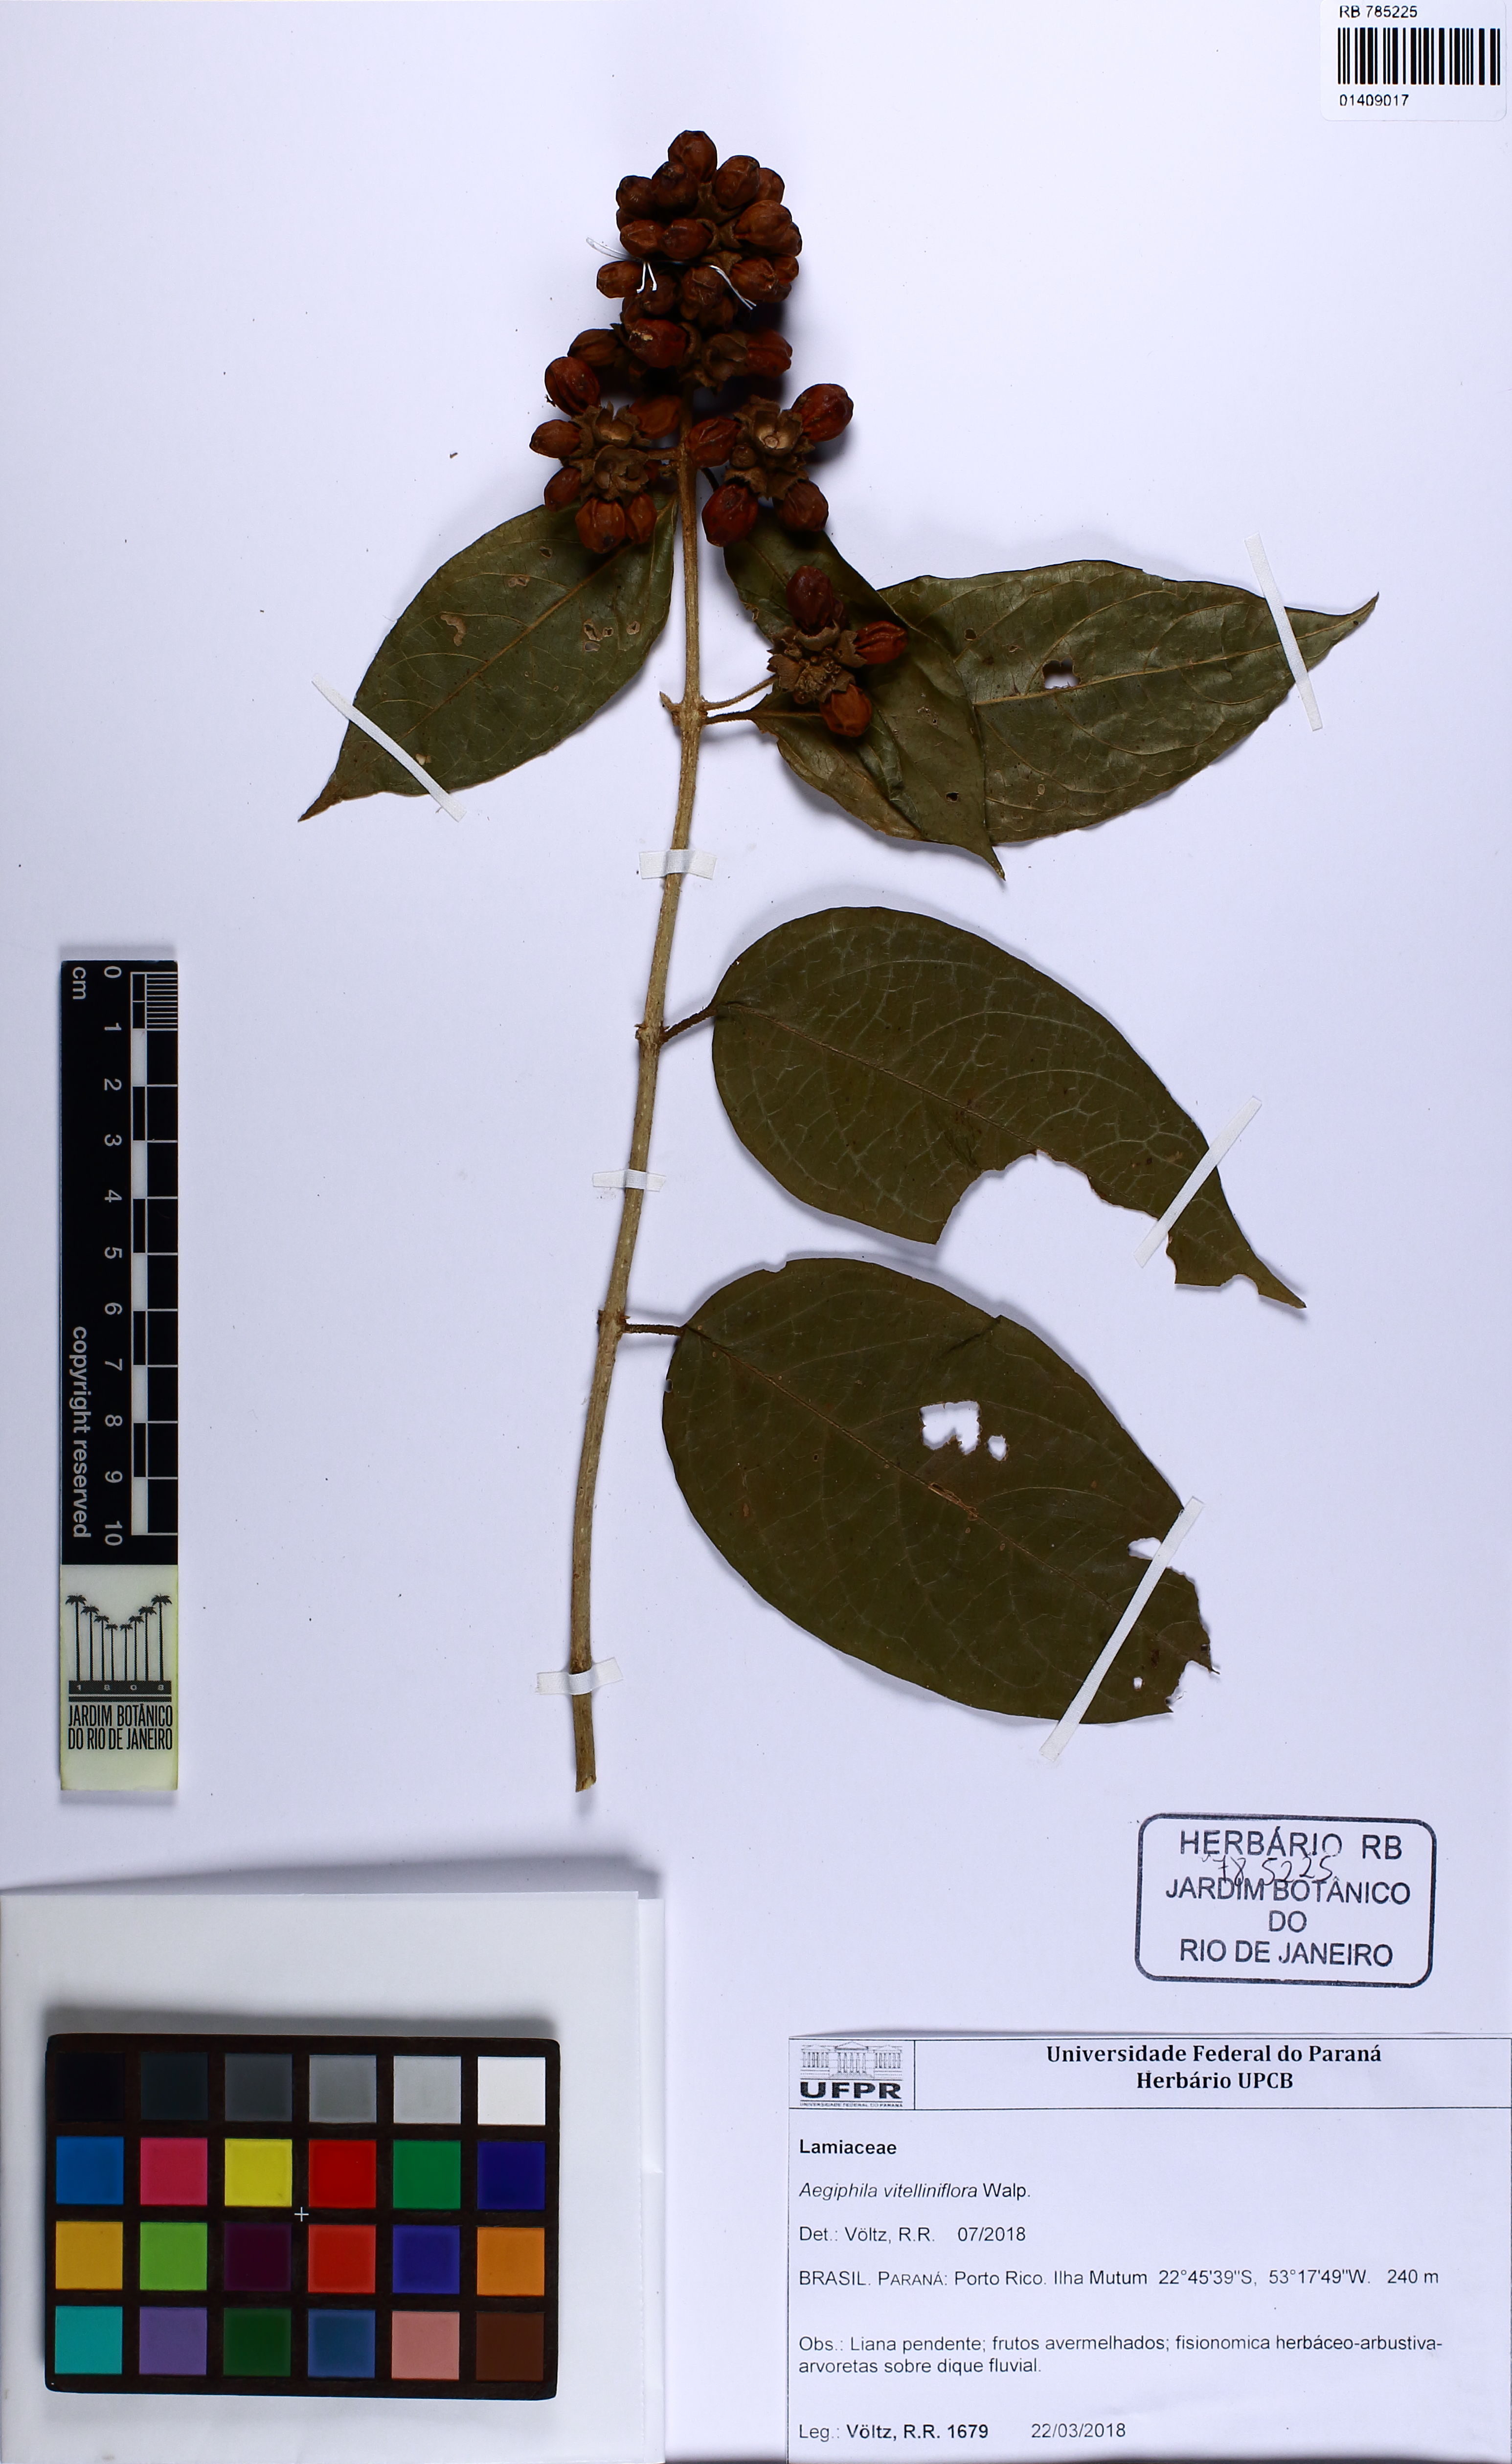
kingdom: Plantae
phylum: Tracheophyta
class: Magnoliopsida
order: Lamiales
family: Lamiaceae
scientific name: Lamiaceae
